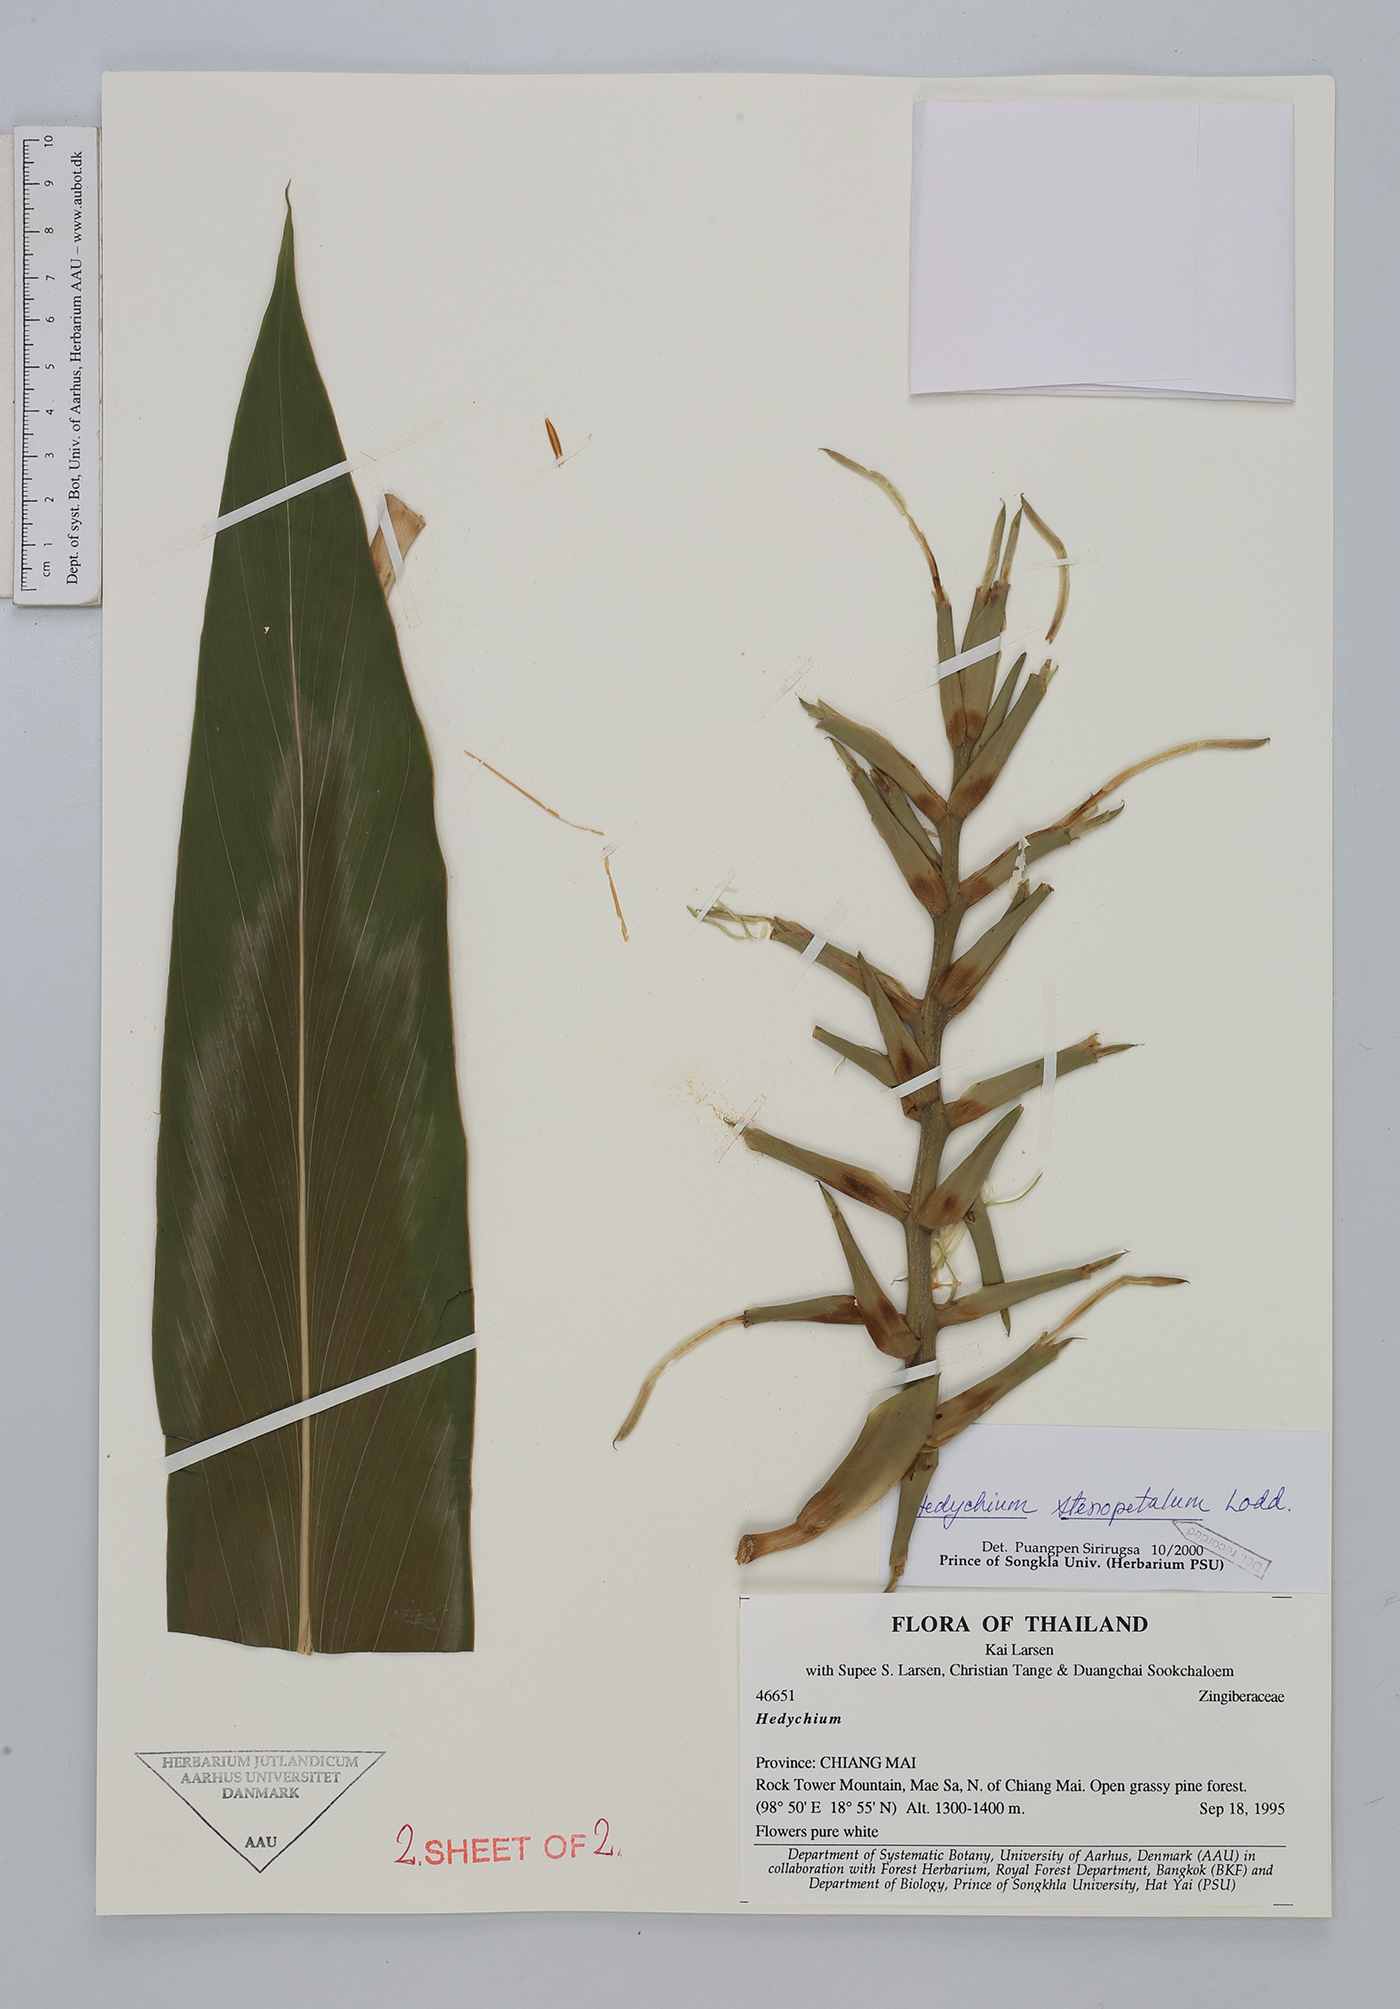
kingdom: Plantae
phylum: Tracheophyta
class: Liliopsida
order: Zingiberales
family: Zingiberaceae
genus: Hedychium
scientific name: Hedychium stenopetalum
